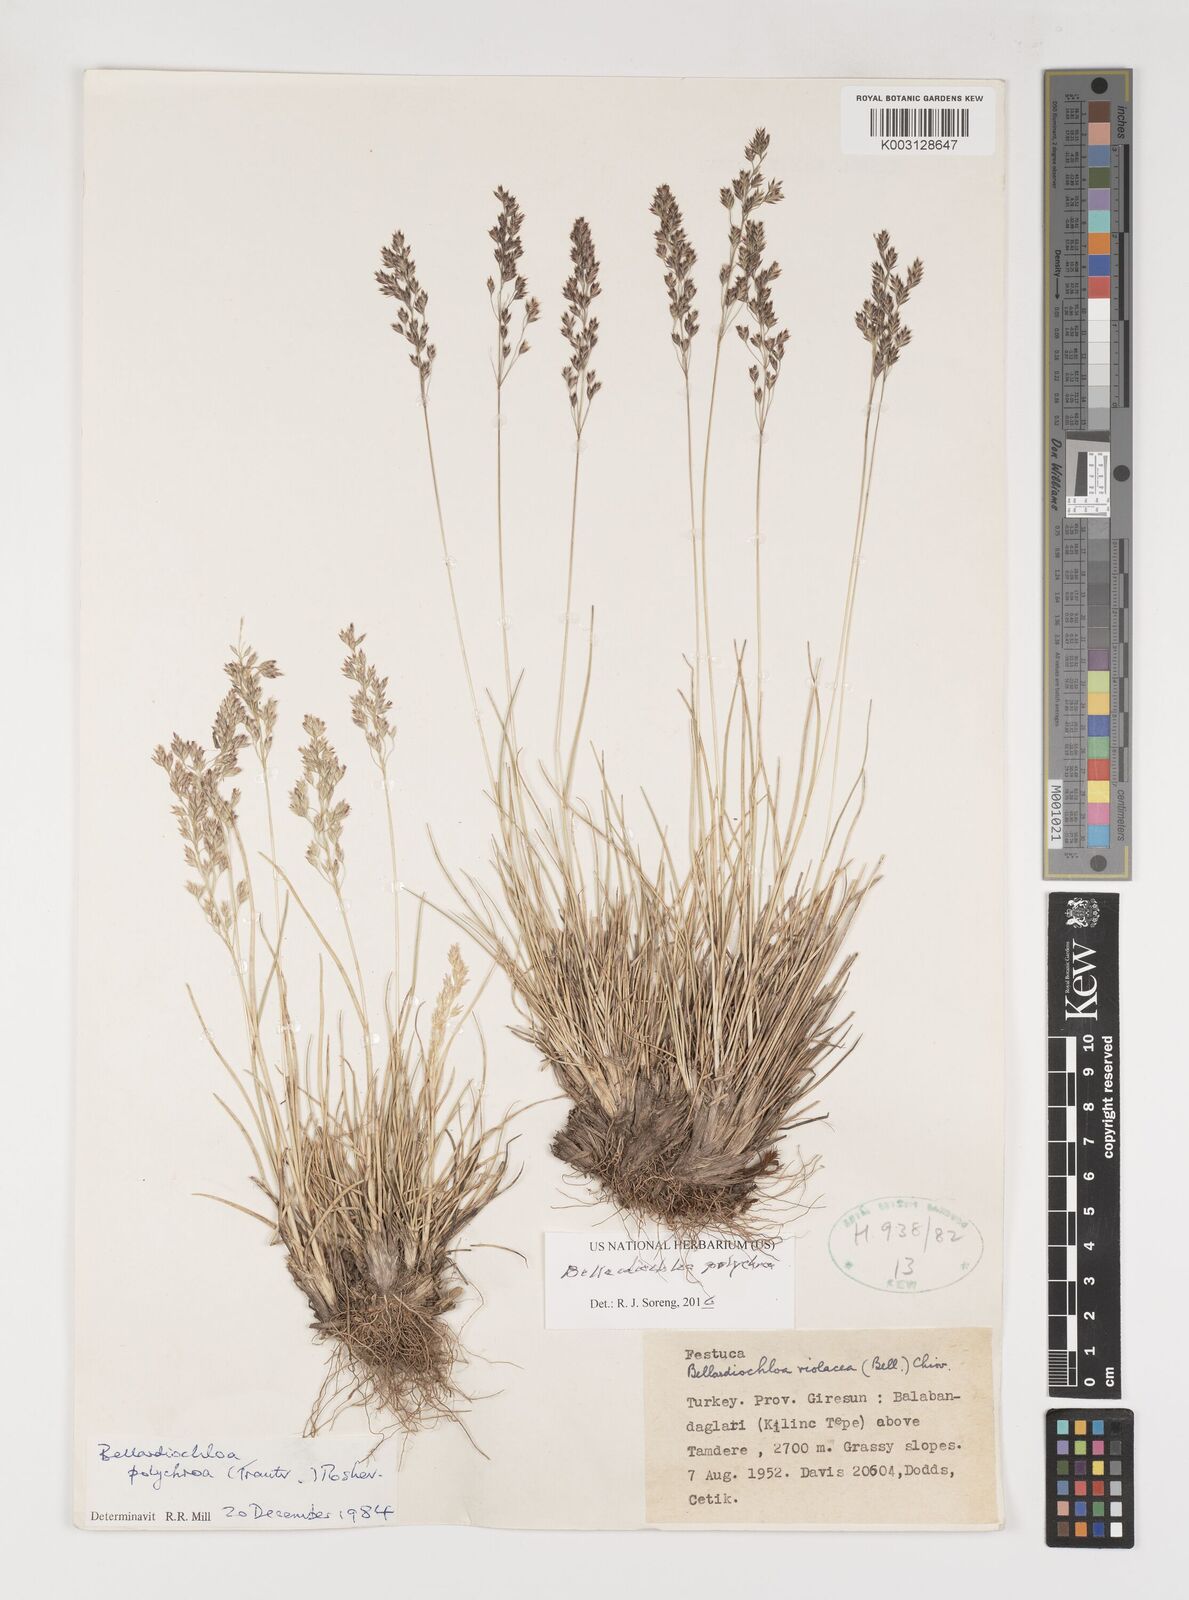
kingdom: Plantae
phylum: Tracheophyta
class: Liliopsida
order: Poales
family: Poaceae
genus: Bellardiochloa
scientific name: Bellardiochloa polychroa
